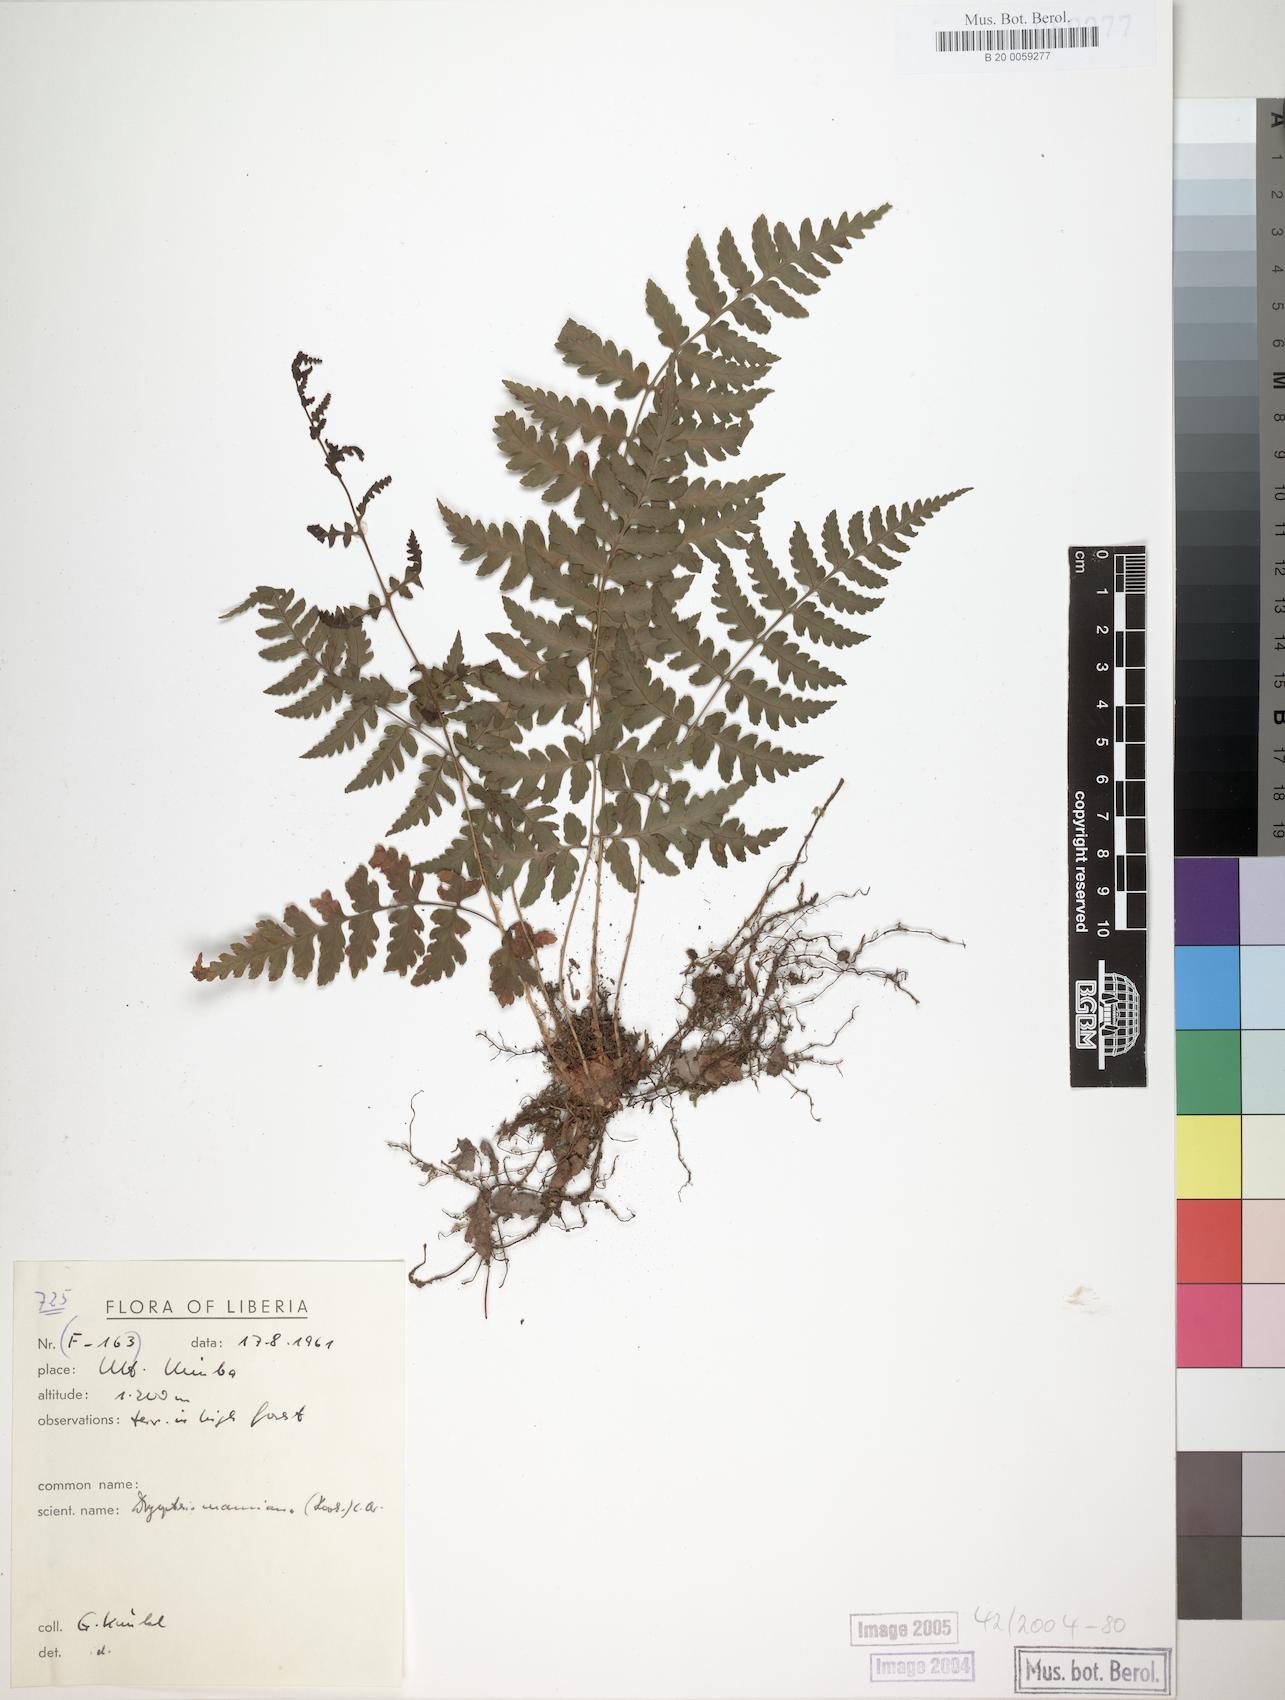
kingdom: Plantae
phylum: Tracheophyta
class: Polypodiopsida
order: Polypodiales
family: Dryopteridaceae
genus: Dryopteris
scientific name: Dryopteris manniana
